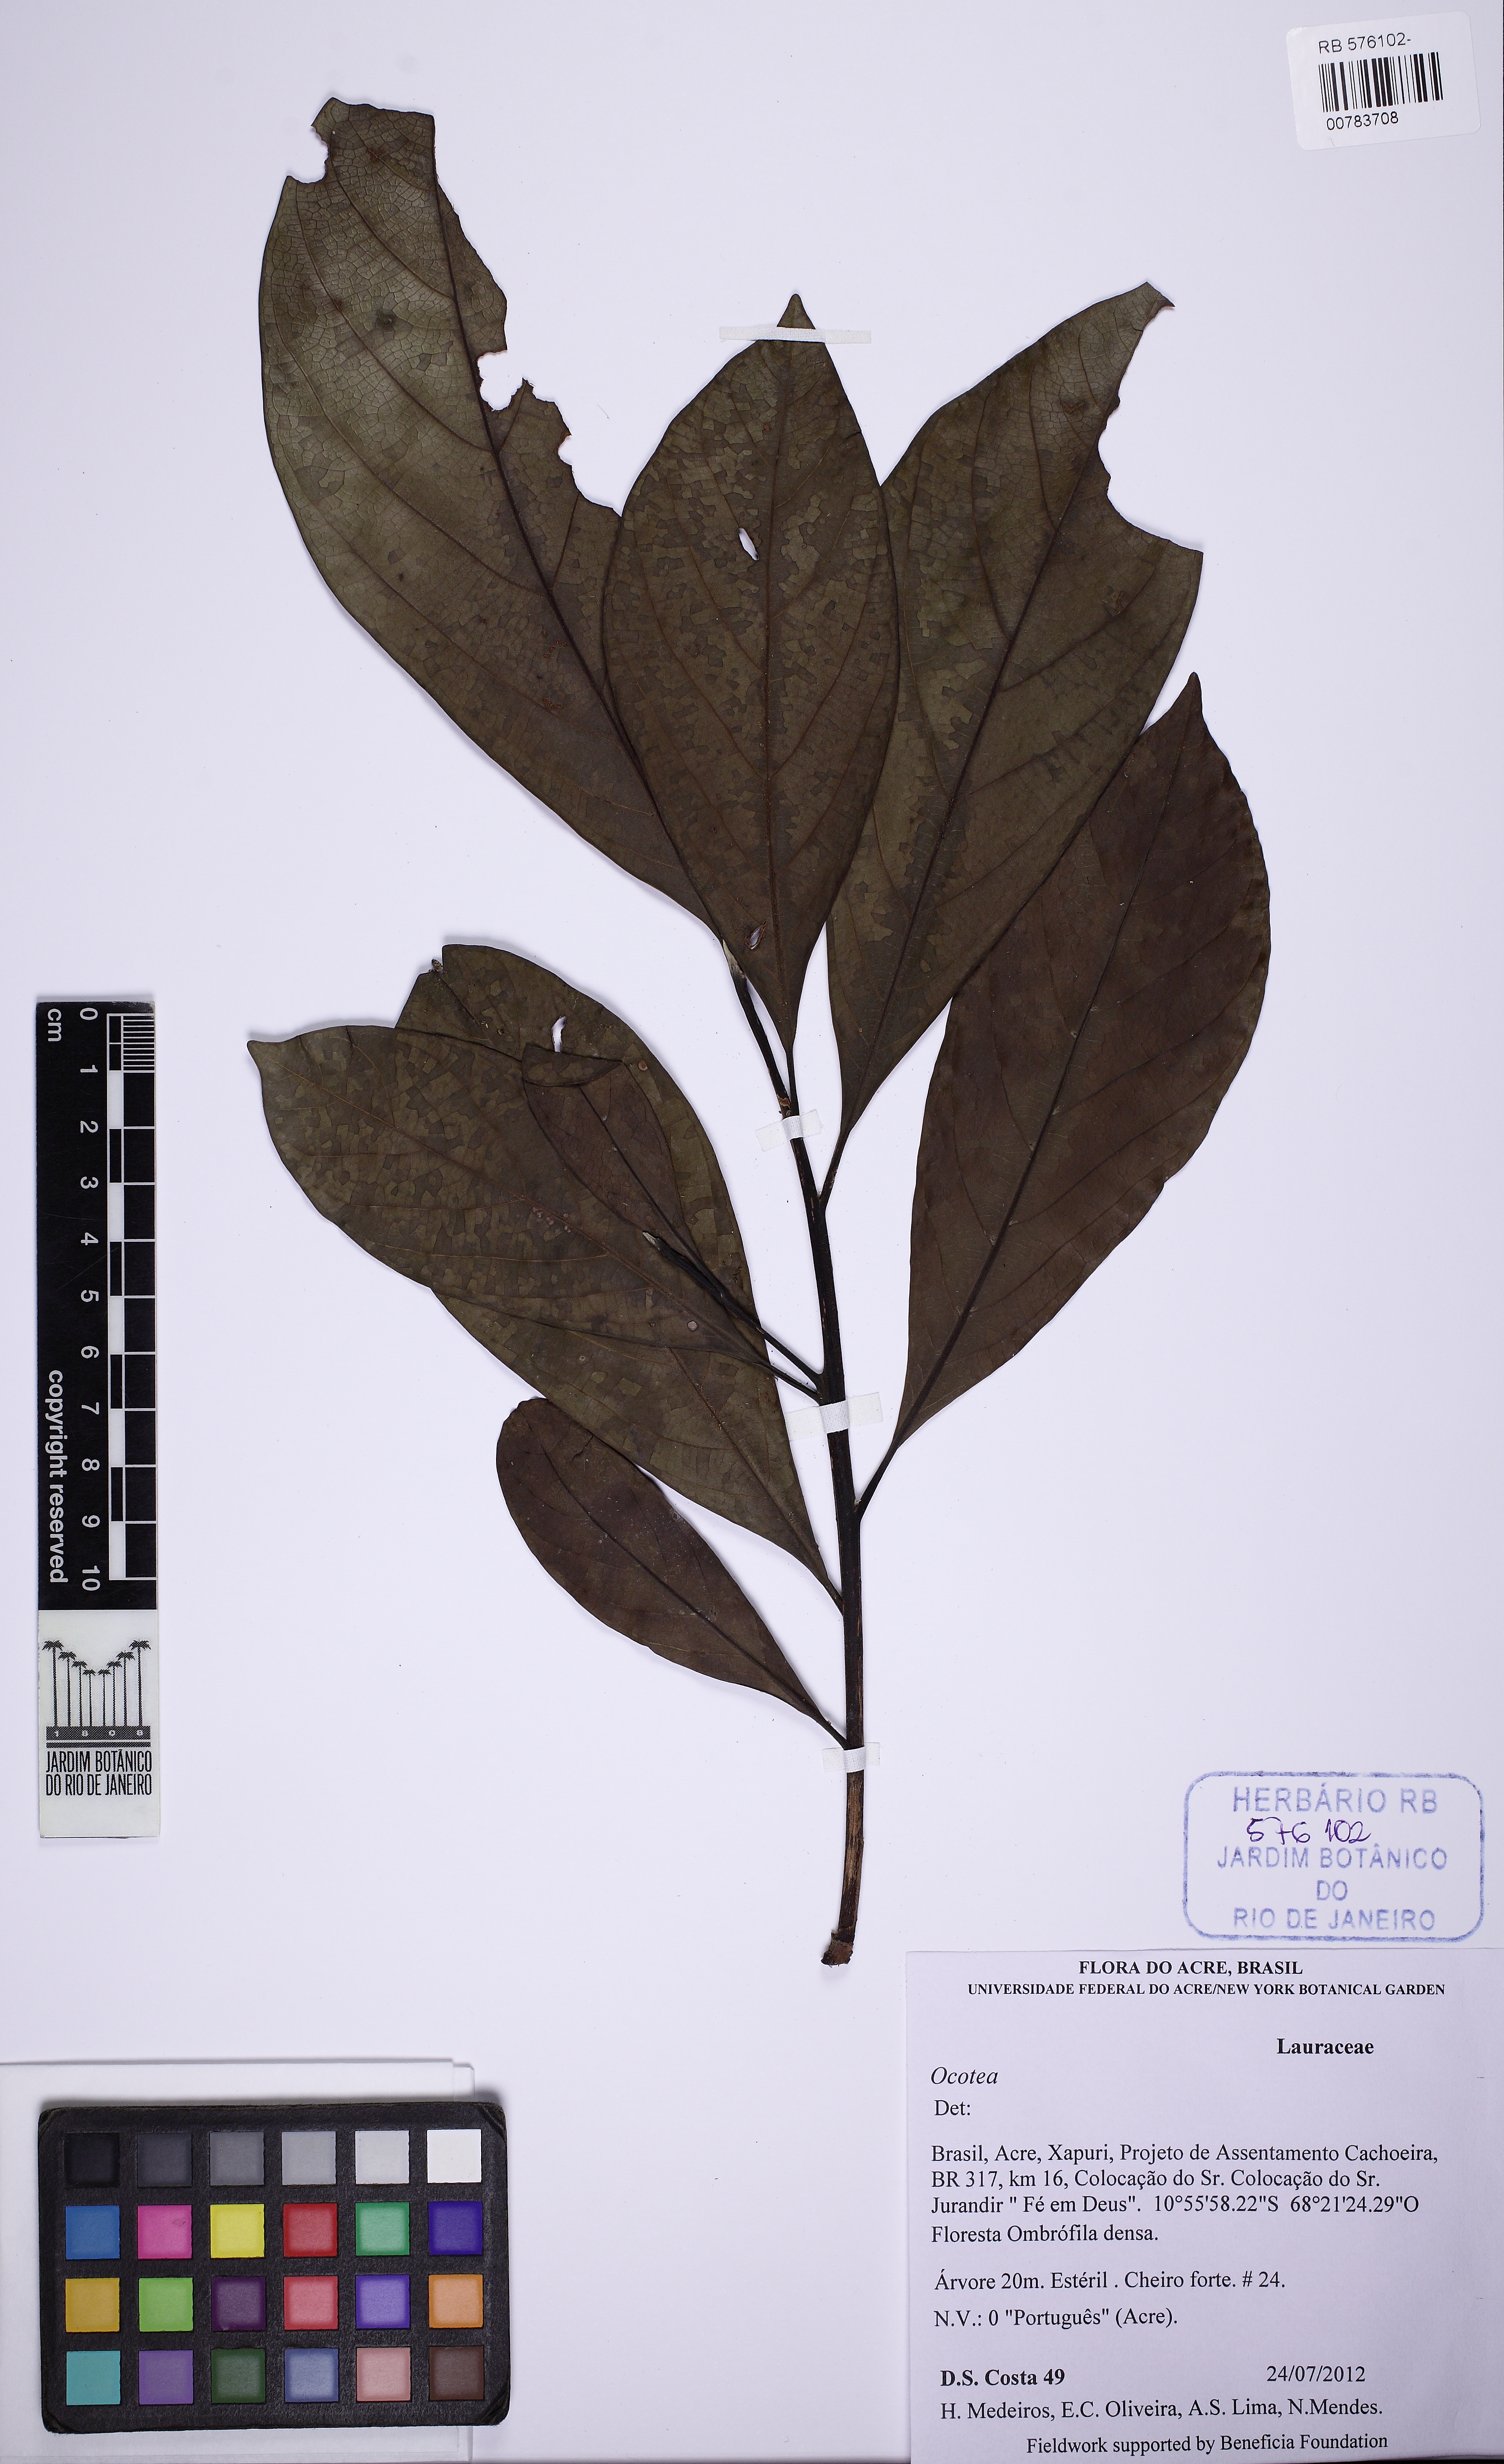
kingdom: Plantae
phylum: Tracheophyta
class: Magnoliopsida
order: Laurales
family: Lauraceae
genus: Ocotea
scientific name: Ocotea
